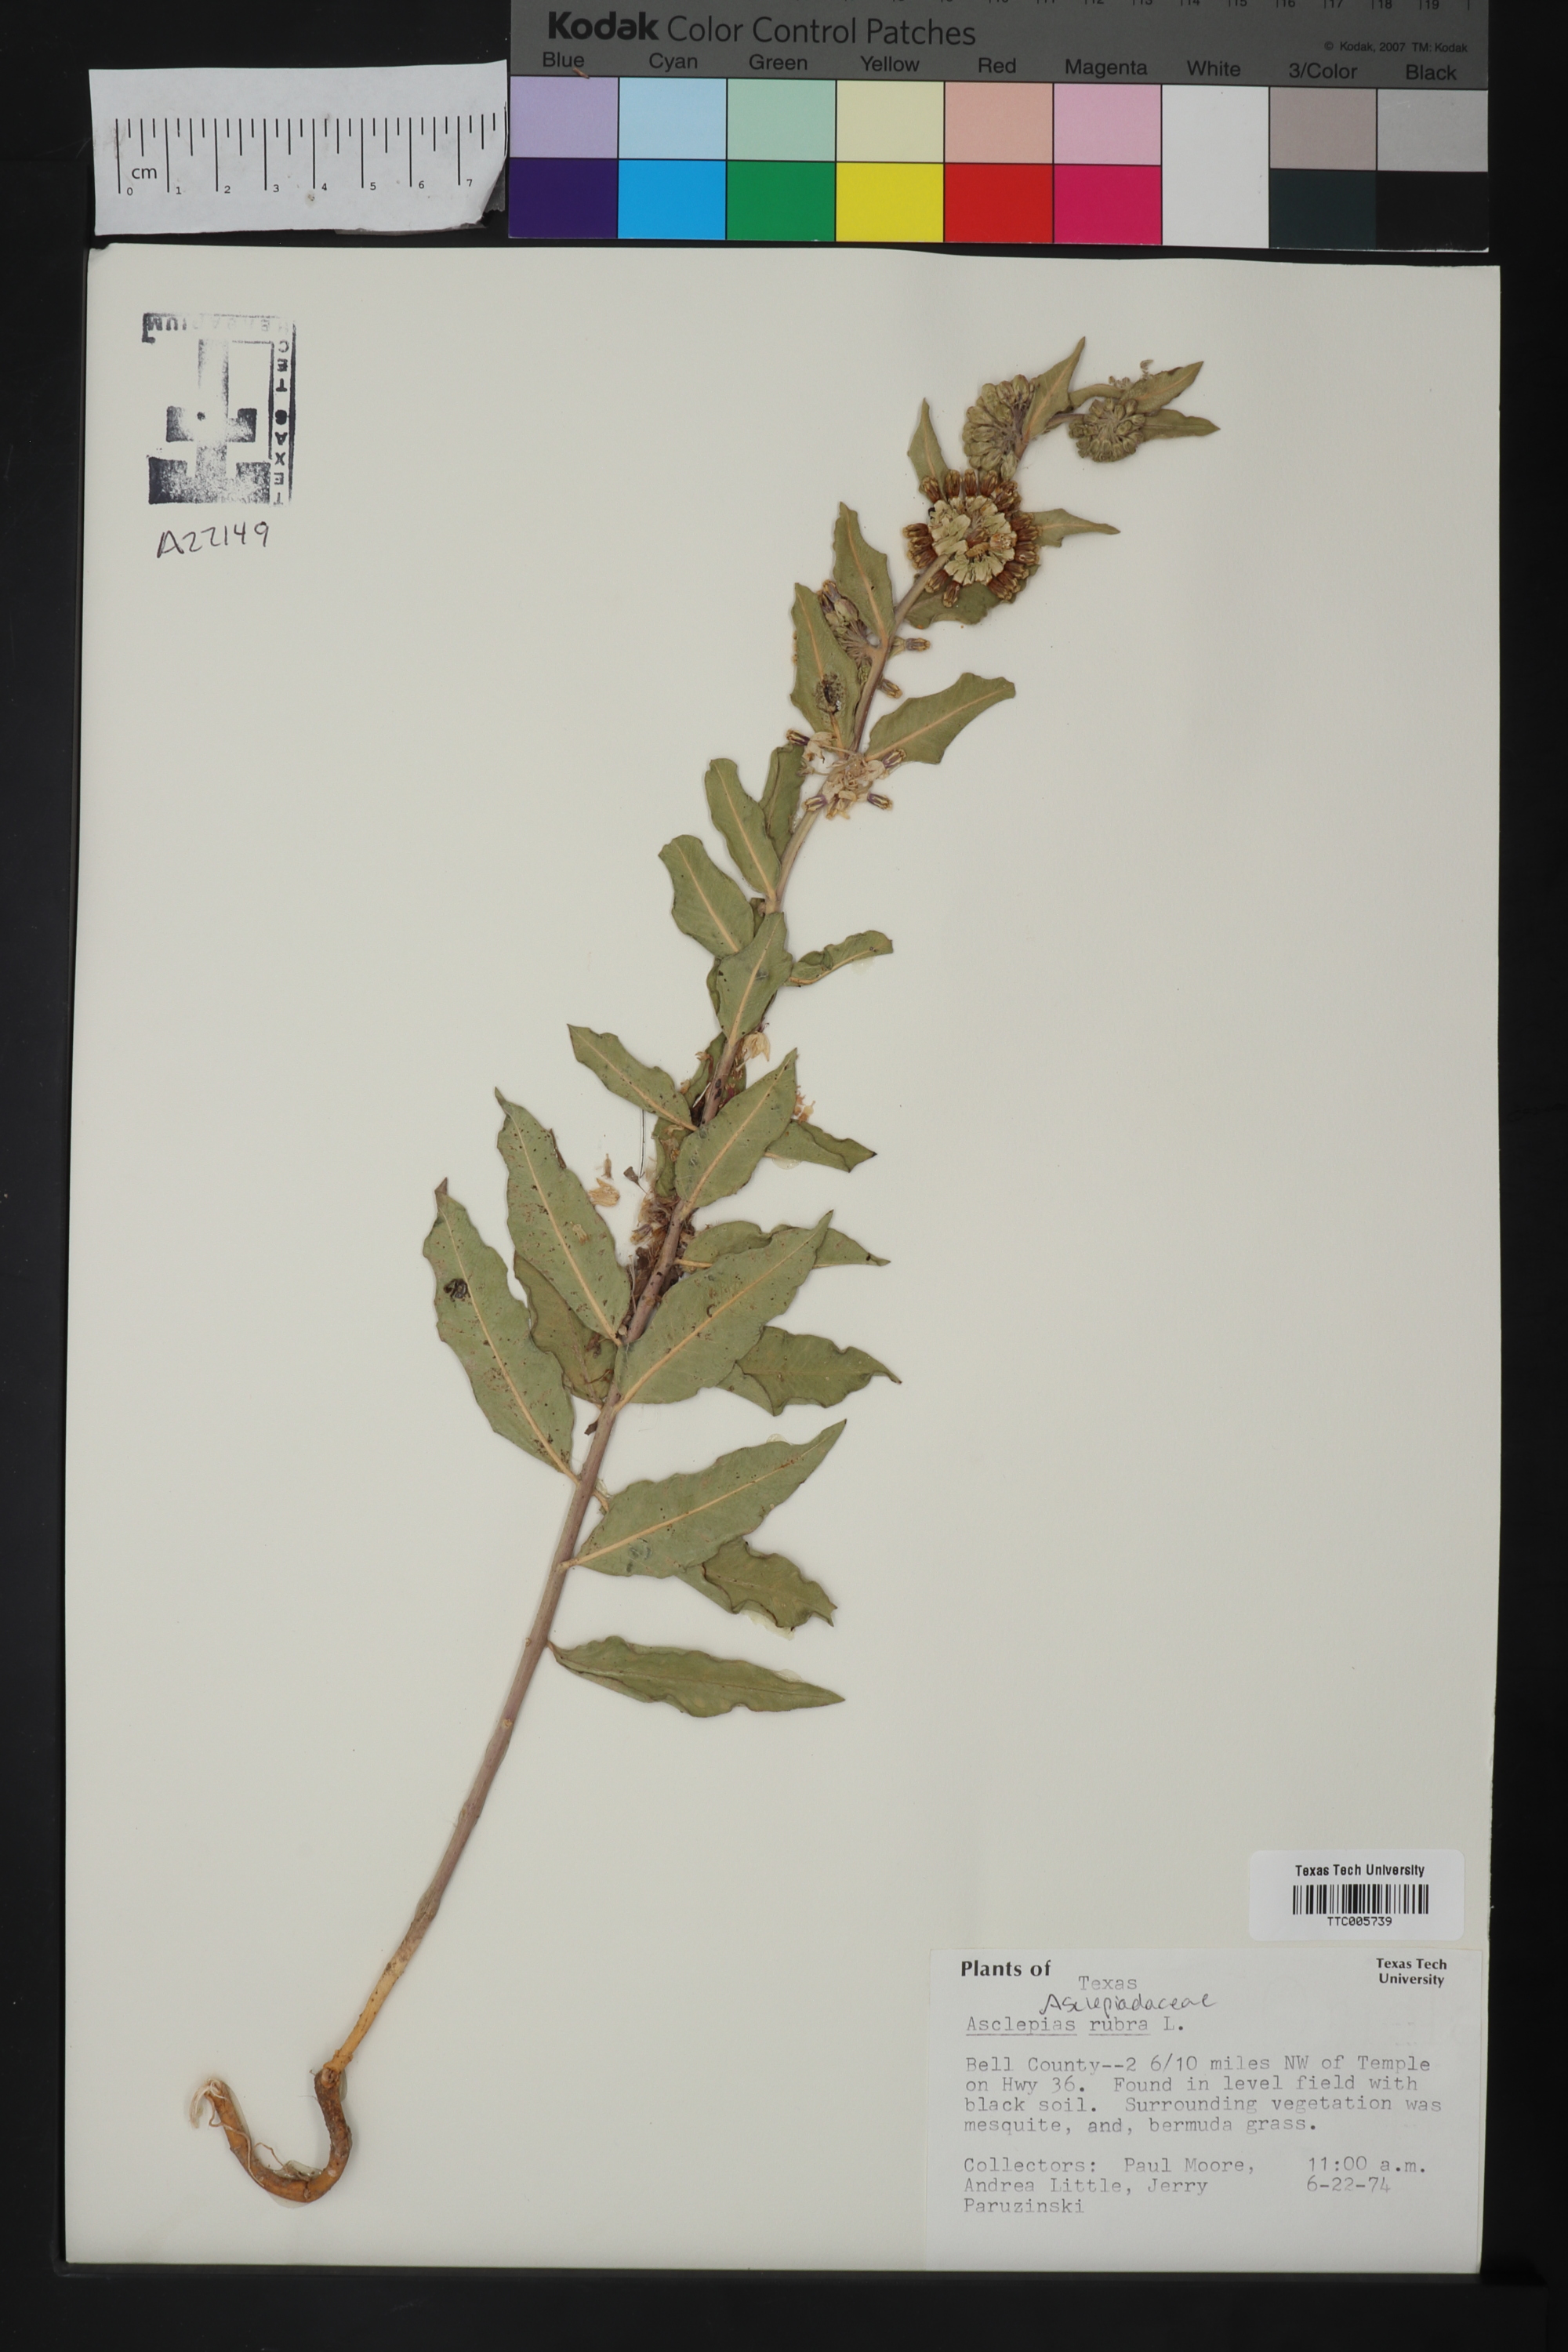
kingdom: Plantae
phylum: Tracheophyta
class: Magnoliopsida
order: Gentianales
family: Apocynaceae
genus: Asclepias
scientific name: Asclepias viridiflora
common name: Green comet milkweed
